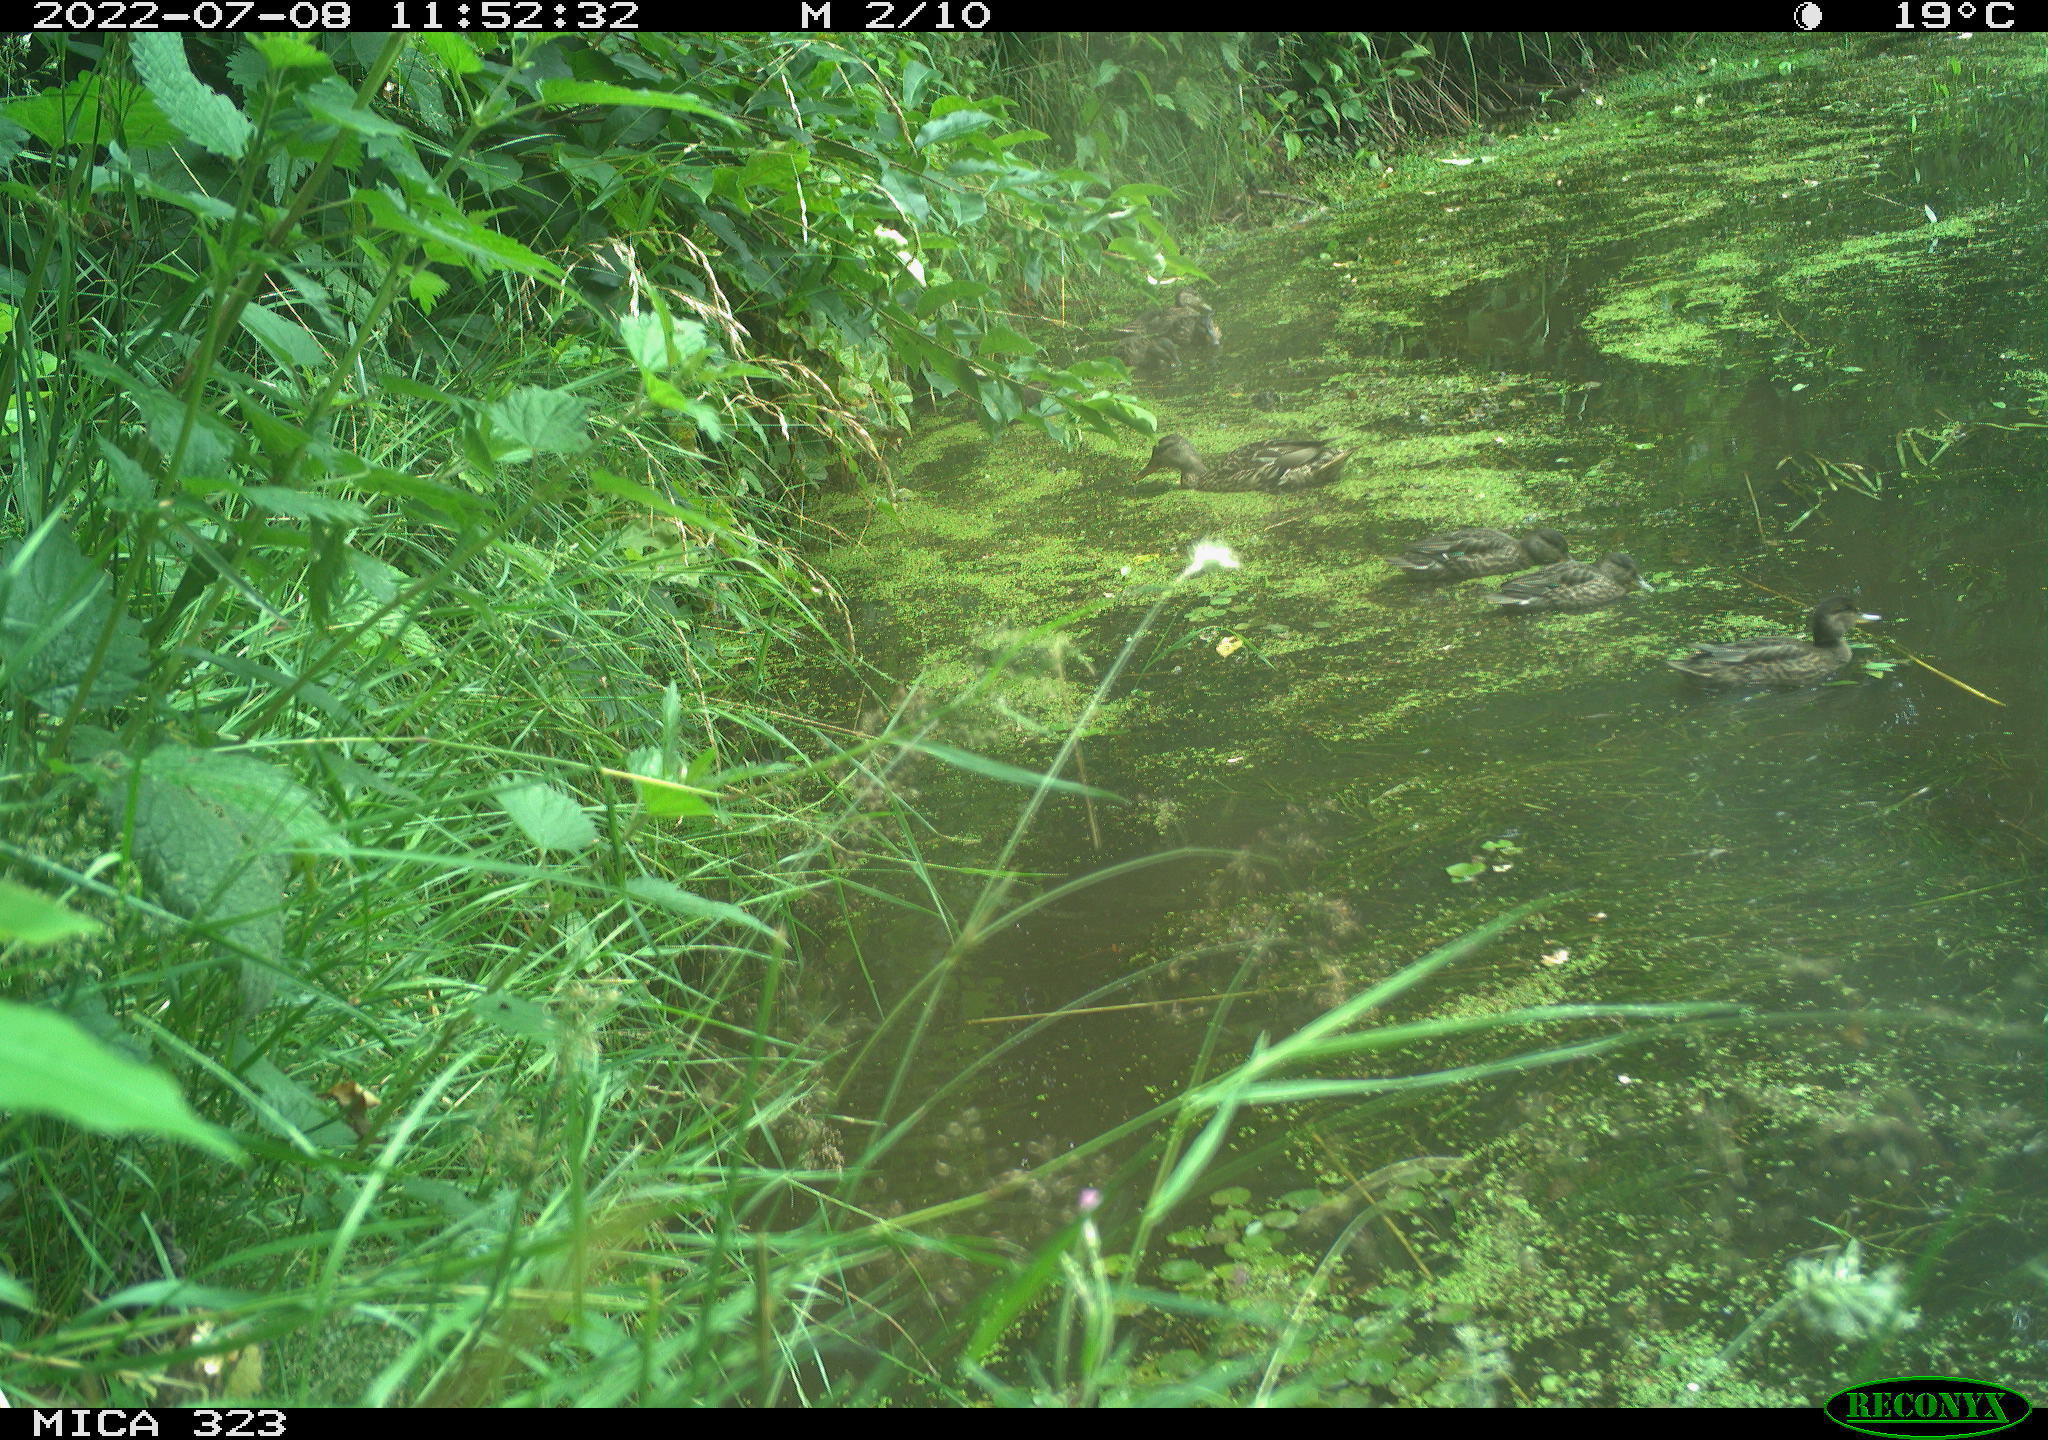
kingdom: Animalia
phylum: Chordata
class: Aves
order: Anseriformes
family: Anatidae
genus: Anas
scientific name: Anas platyrhynchos
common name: Mallard
